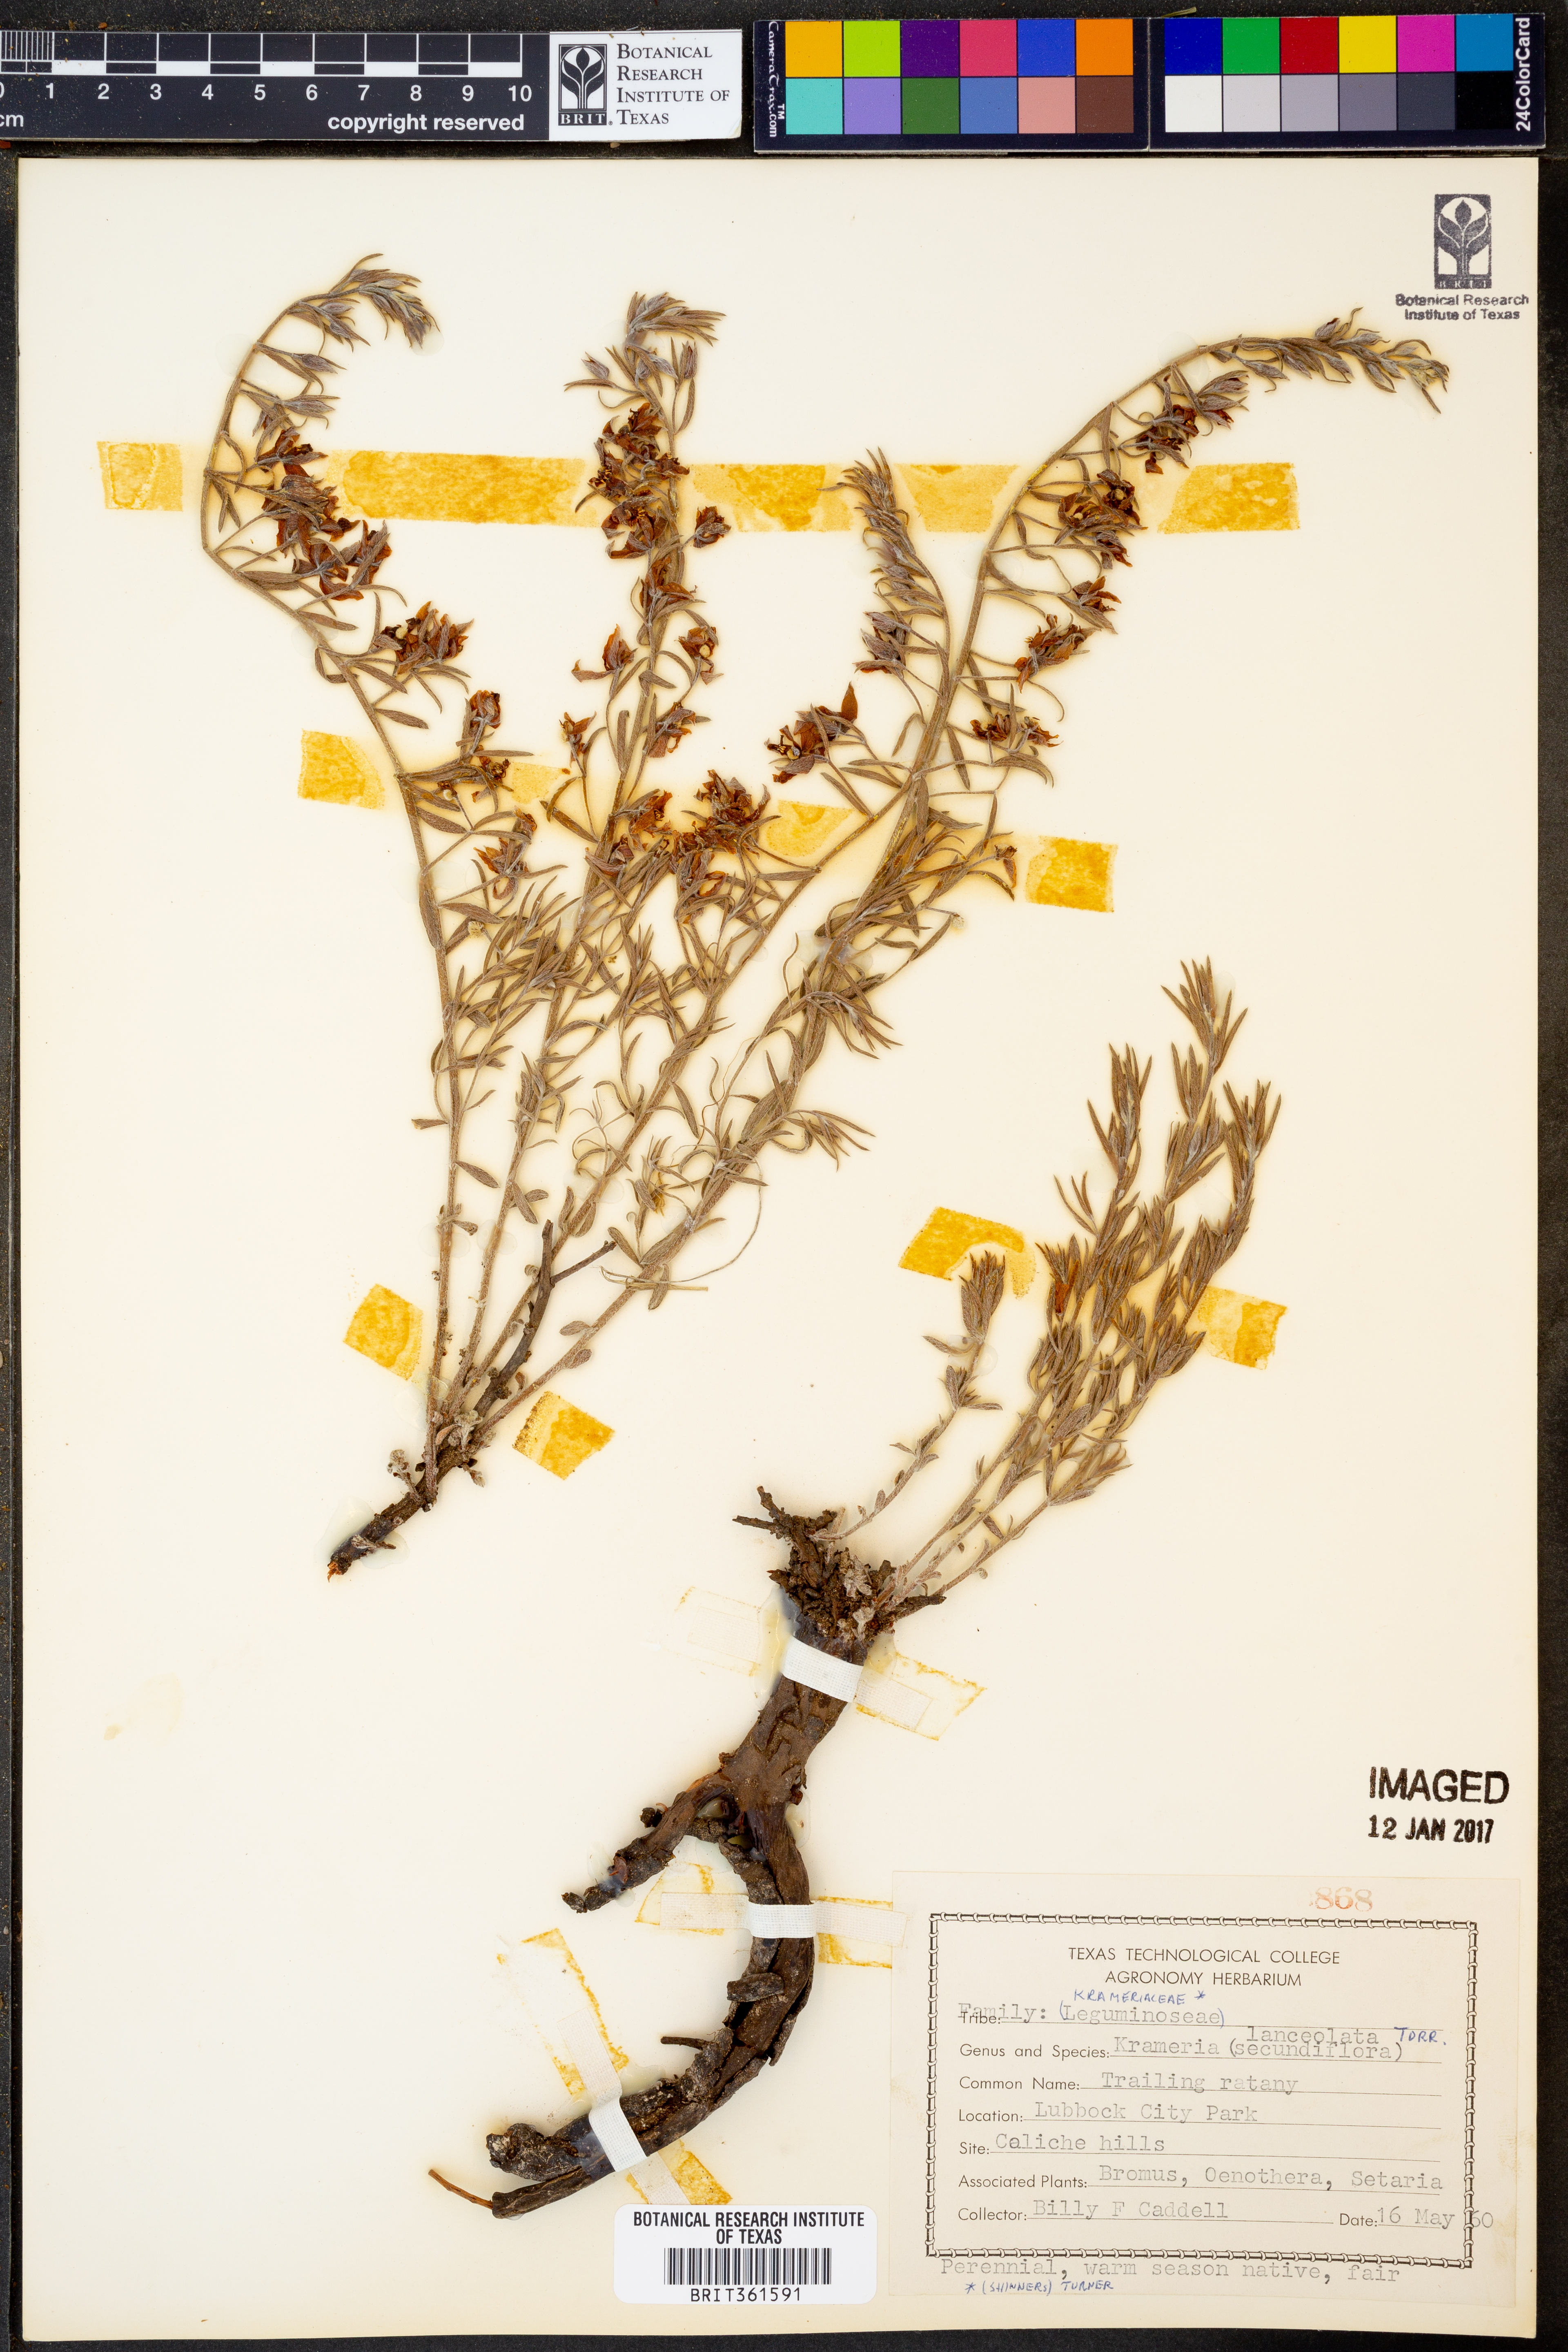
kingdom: Plantae
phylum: Tracheophyta
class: Magnoliopsida
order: Zygophyllales
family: Krameriaceae
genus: Krameria
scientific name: Krameria lanceolata
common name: Ratany
